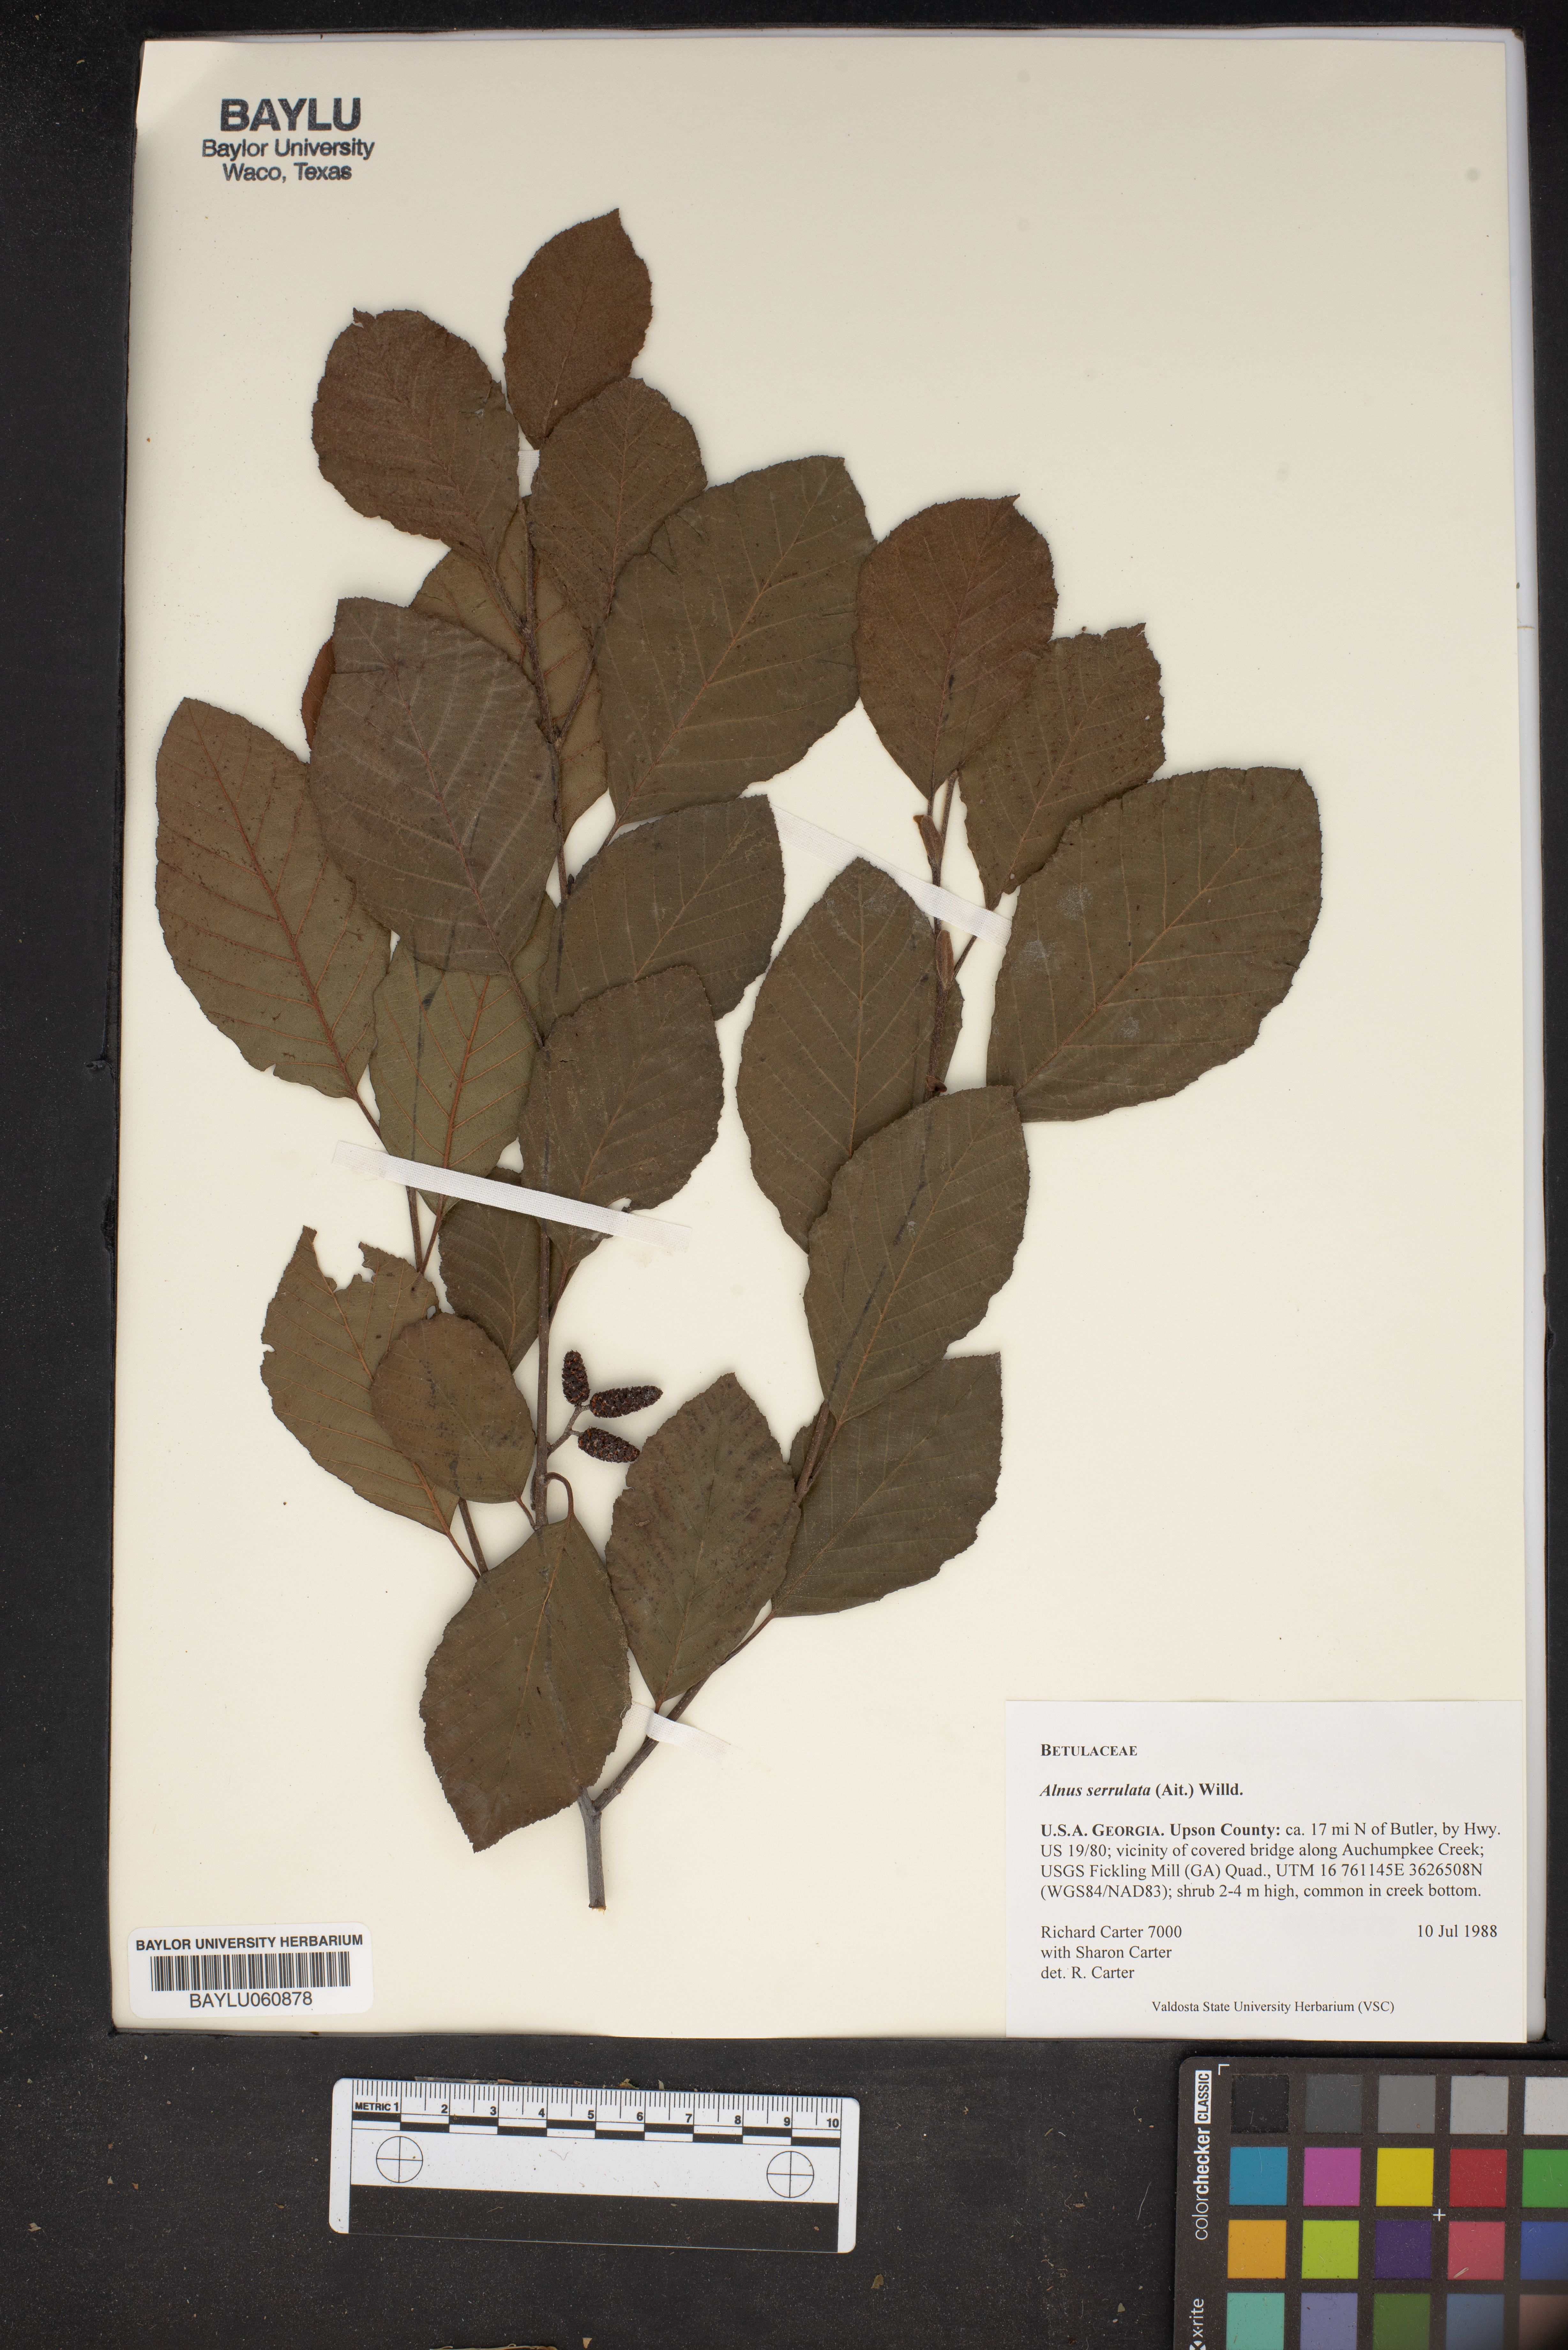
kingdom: Plantae
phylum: Tracheophyta
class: Magnoliopsida
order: Fagales
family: Betulaceae
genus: Alnus
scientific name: Alnus serrulata
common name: Hazel alder
